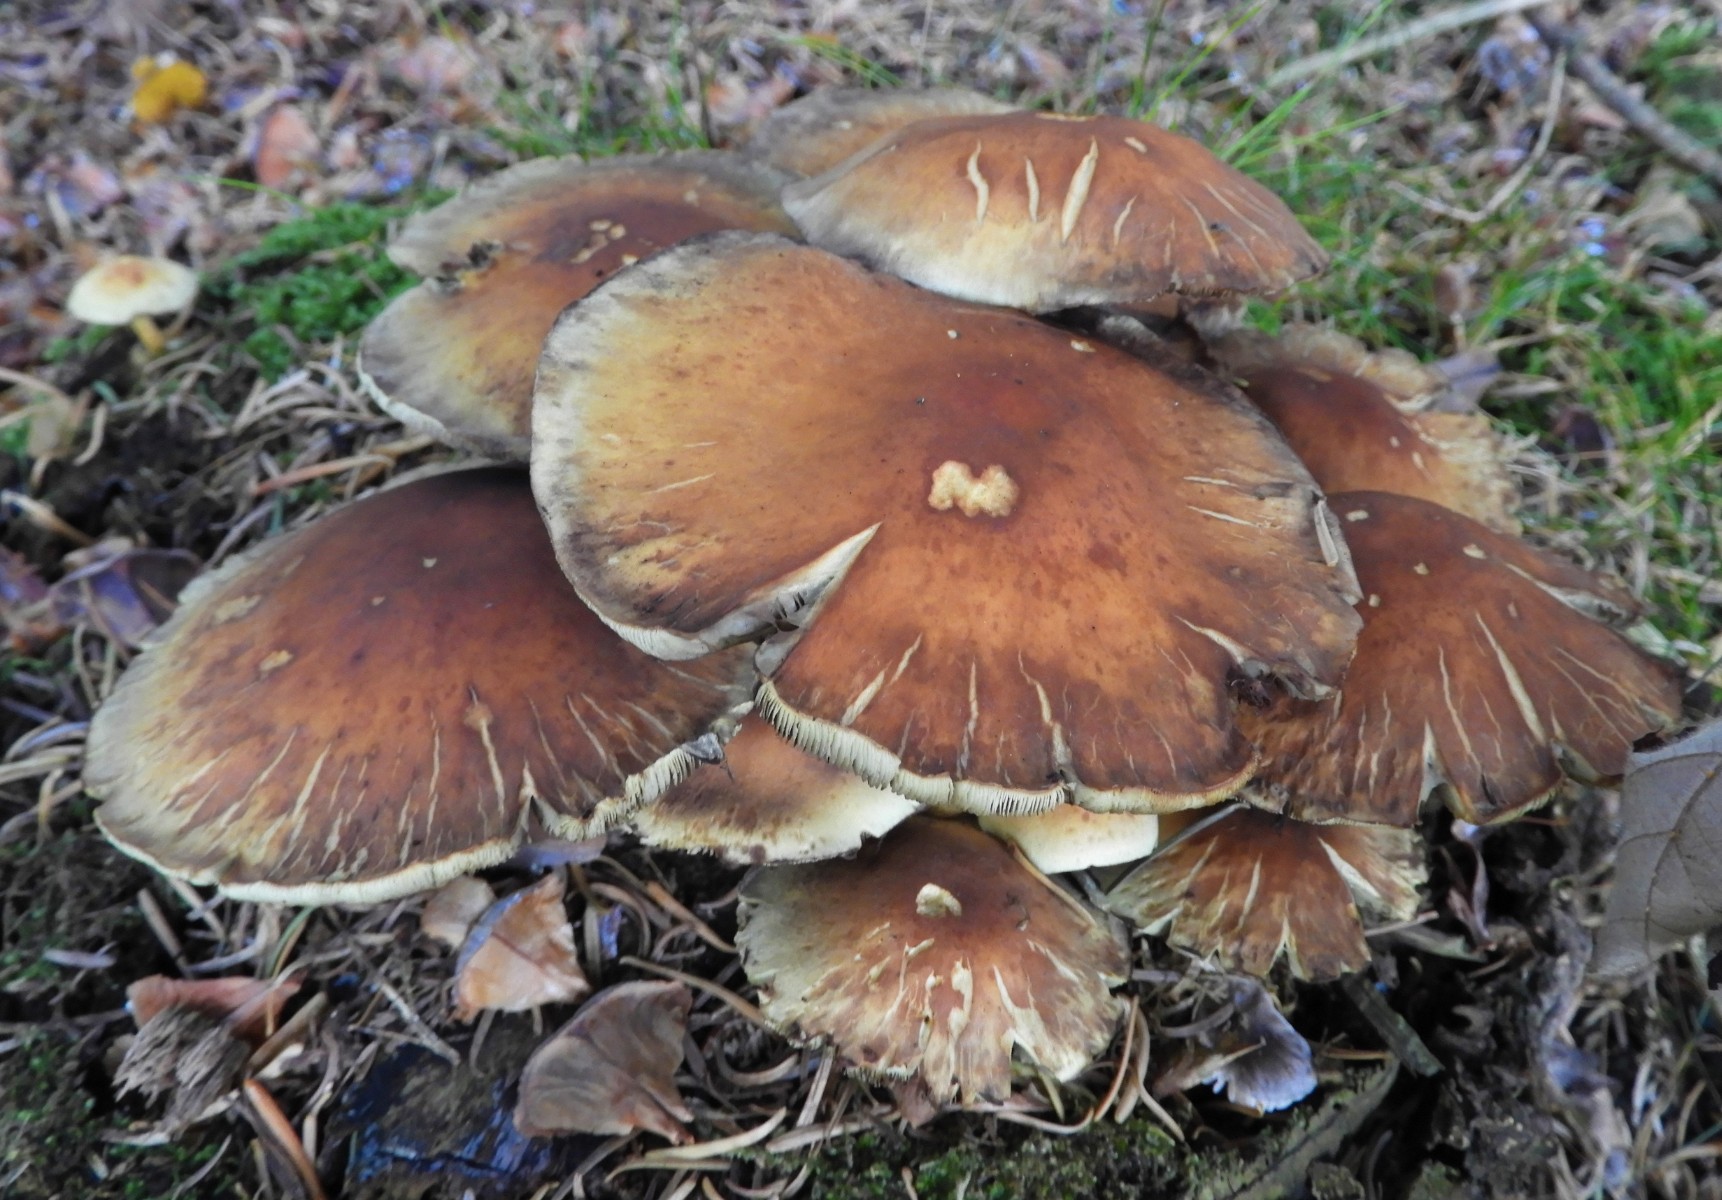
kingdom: Fungi
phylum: Basidiomycota
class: Agaricomycetes
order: Agaricales
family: Strophariaceae
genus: Hypholoma
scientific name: Hypholoma fasciculare
